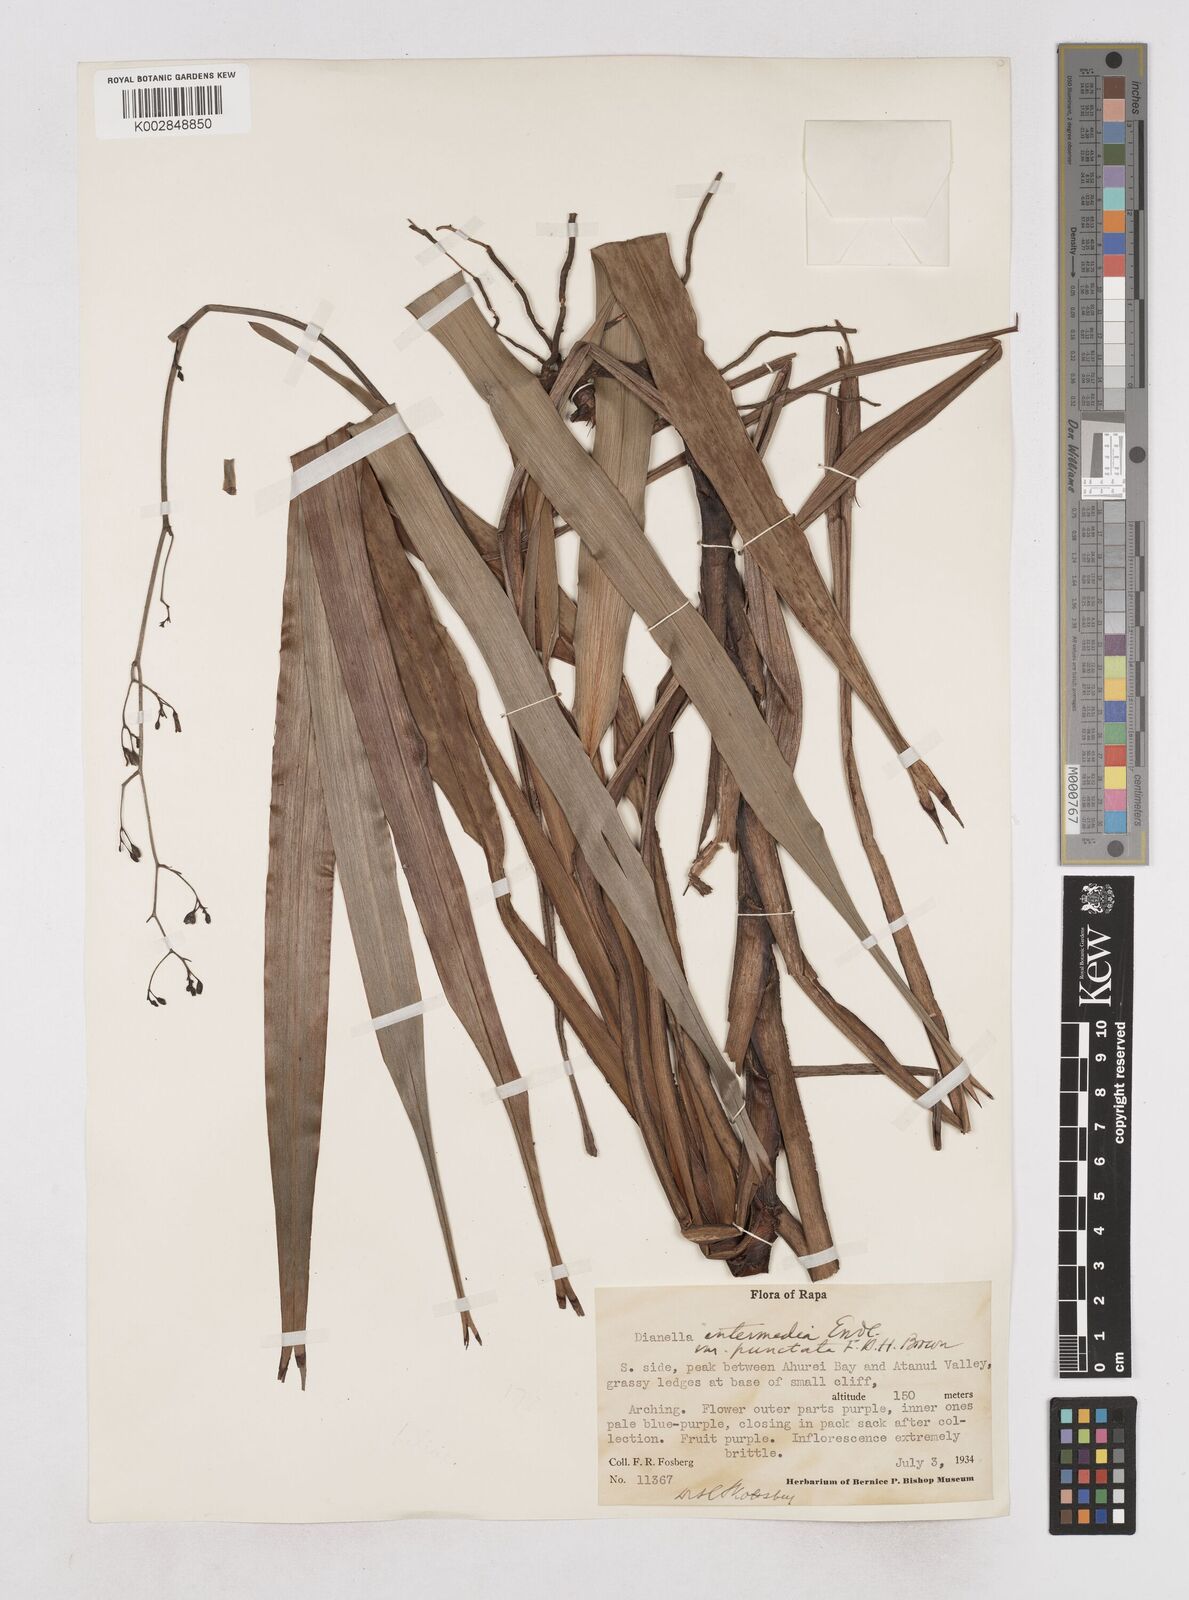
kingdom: Plantae
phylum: Tracheophyta
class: Liliopsida
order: Asparagales
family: Asphodelaceae
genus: Dianella
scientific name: Dianella intermedia
